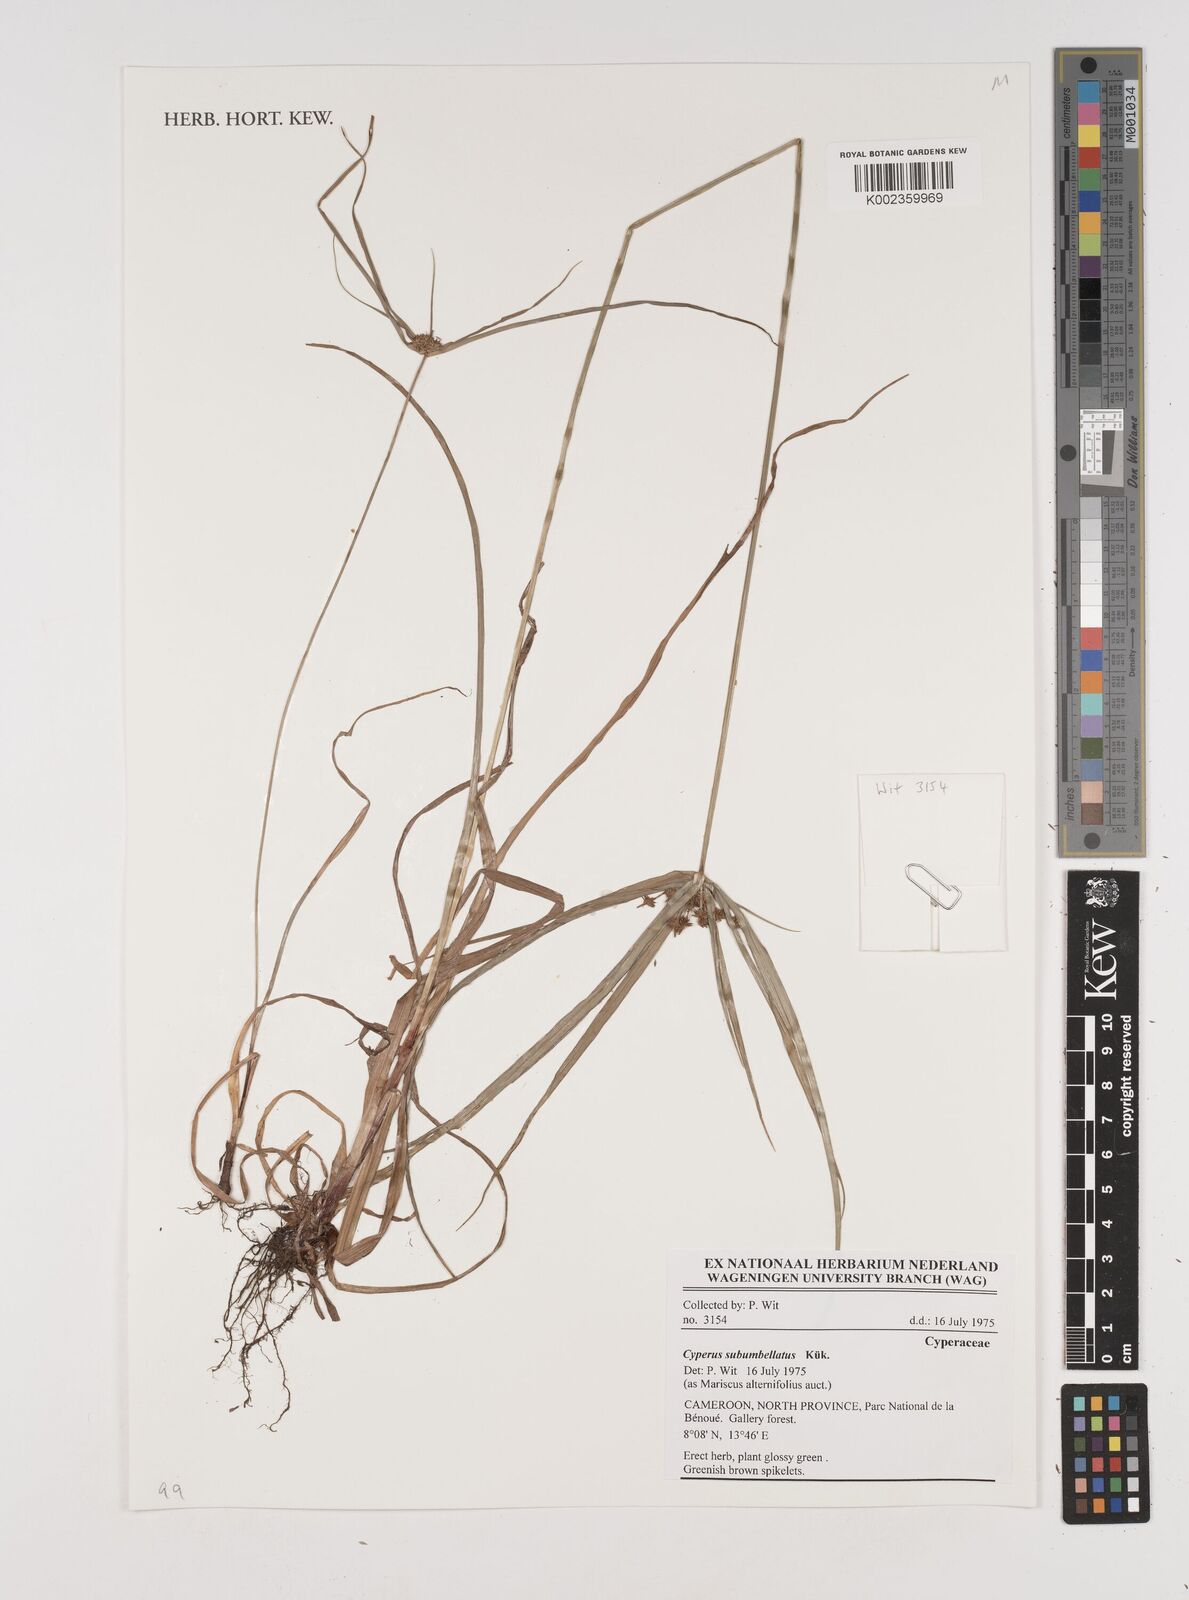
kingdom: Plantae
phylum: Tracheophyta
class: Liliopsida
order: Poales
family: Cyperaceae
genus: Cyperus
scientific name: Cyperus cyperoides
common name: Pacific island flat sedge
